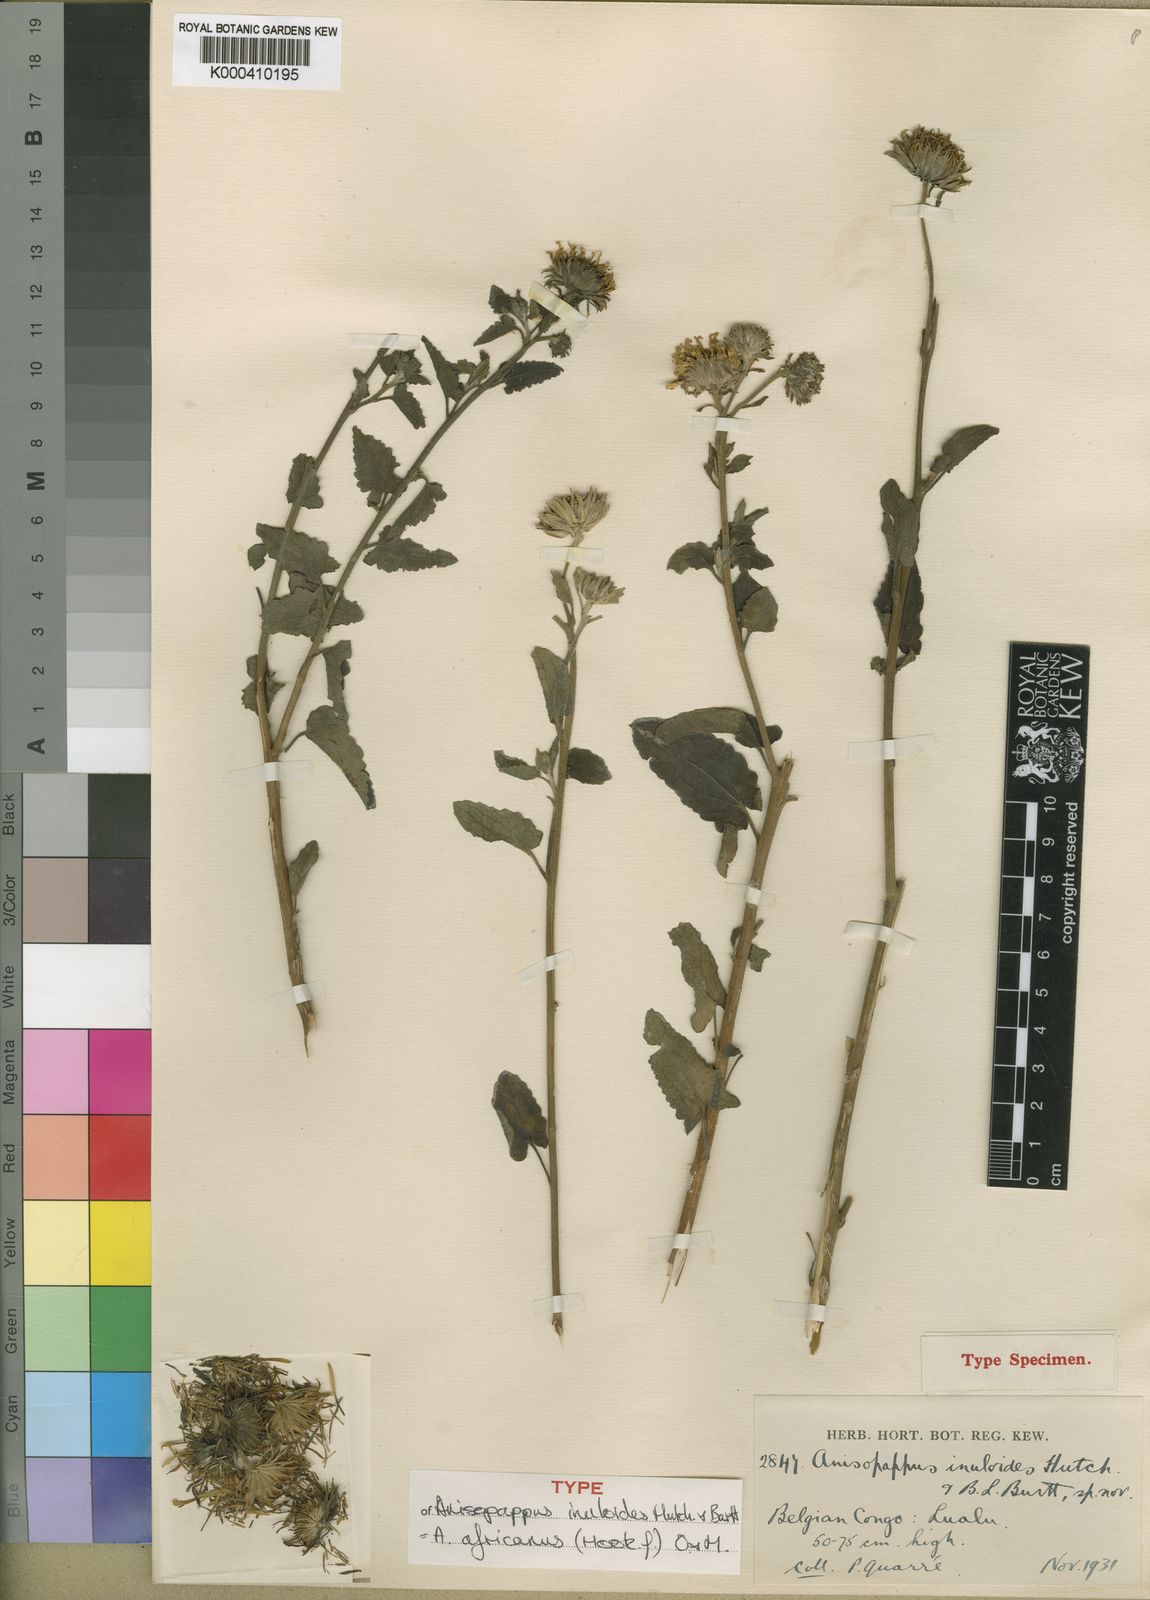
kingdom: Plantae
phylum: Tracheophyta
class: Magnoliopsida
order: Asterales
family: Asteraceae
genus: Anisopappus
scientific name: Anisopappus chinensis
